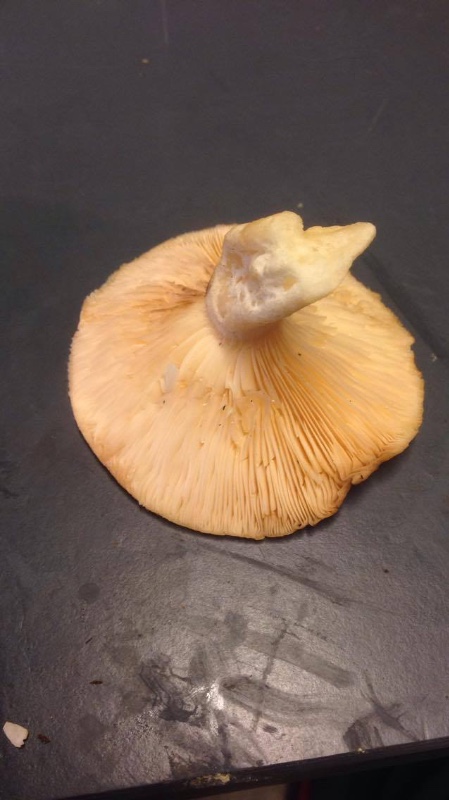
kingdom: Fungi
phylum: Basidiomycota
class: Agaricomycetes
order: Russulales
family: Russulaceae
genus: Lactarius
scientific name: Lactarius scoticus
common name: tørve-mælkehat
